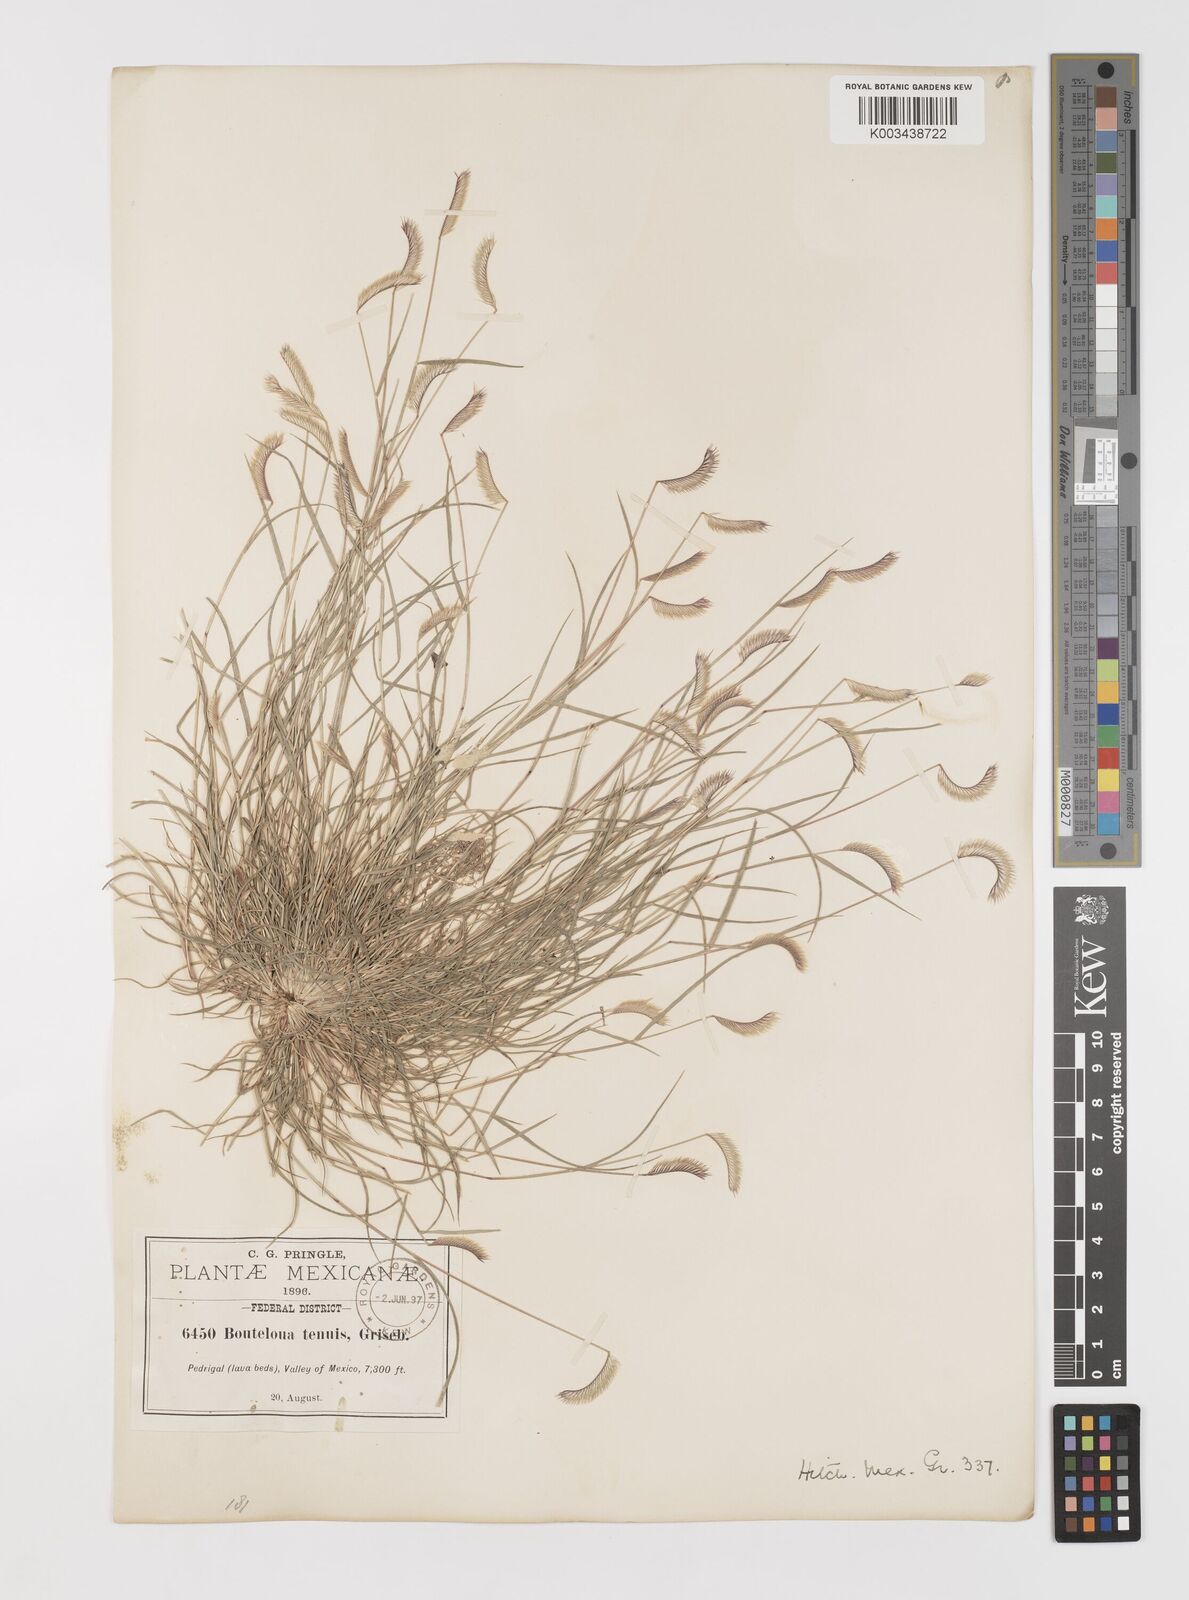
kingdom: Plantae
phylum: Tracheophyta
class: Liliopsida
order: Poales
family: Poaceae
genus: Bouteloua
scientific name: Bouteloua simplex
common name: Mat grama
